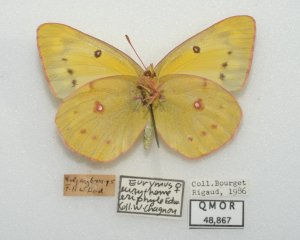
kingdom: Animalia
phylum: Arthropoda
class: Insecta
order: Lepidoptera
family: Pieridae
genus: Colias
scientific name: Colias philodice
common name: Clouded Sulphur
